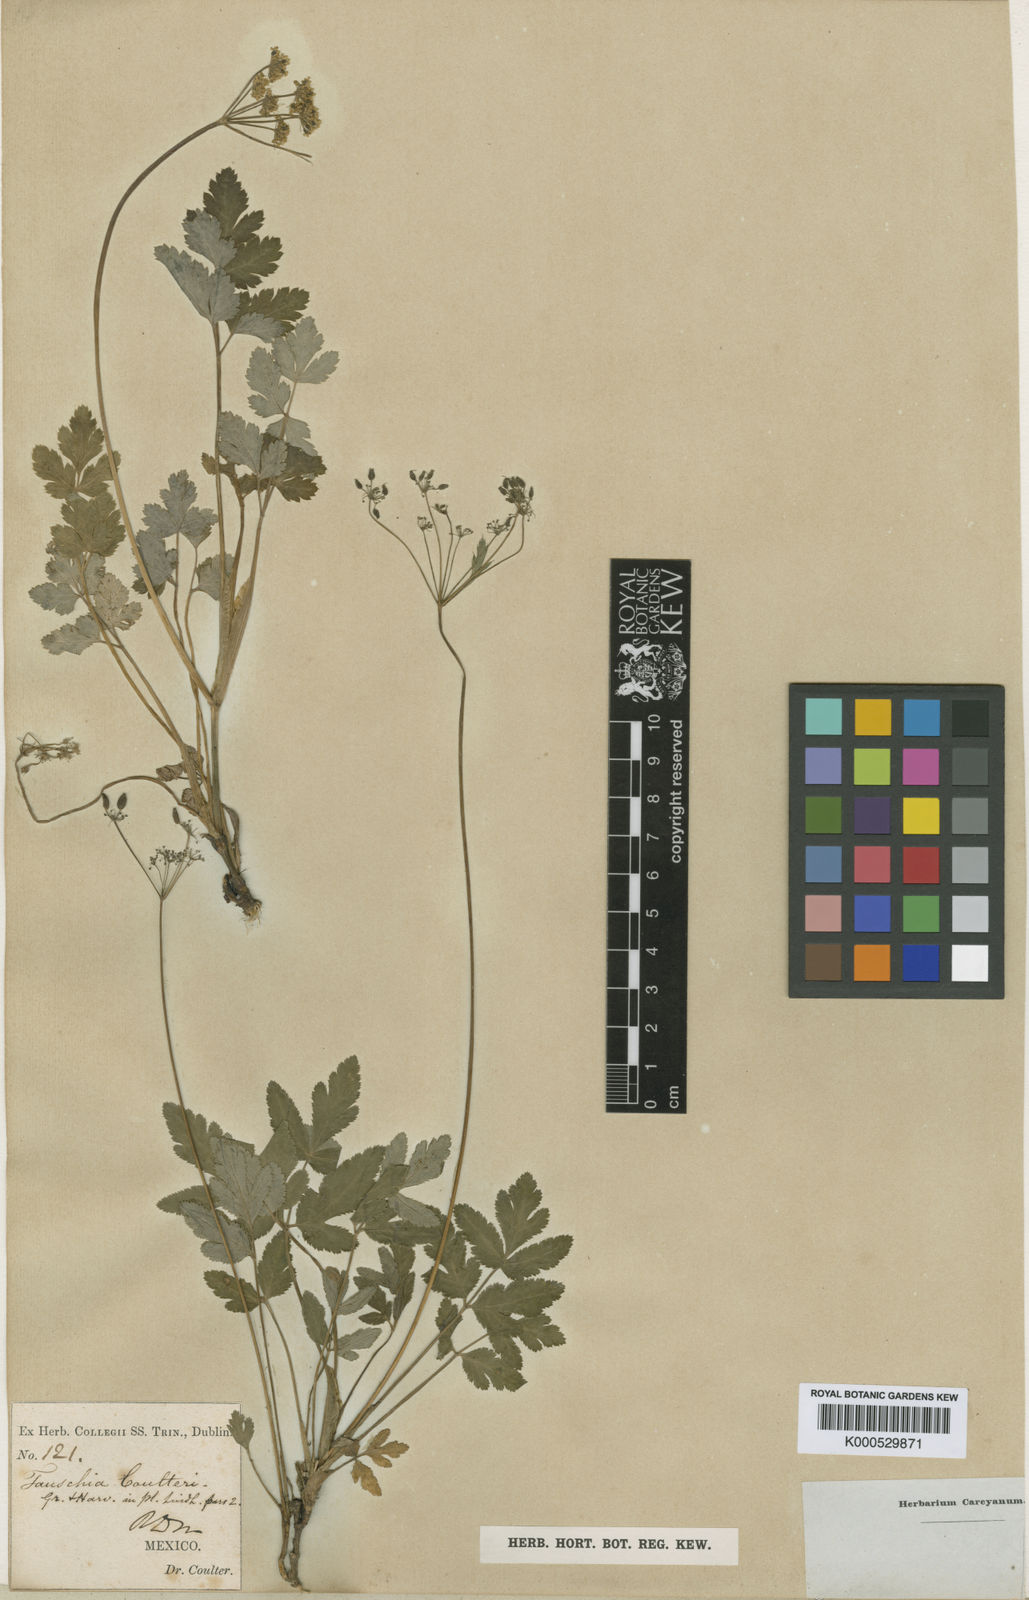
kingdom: Plantae
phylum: Tracheophyta
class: Magnoliopsida
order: Apiales
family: Apiaceae
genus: Arracacia
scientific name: Arracacia aegopodioides
